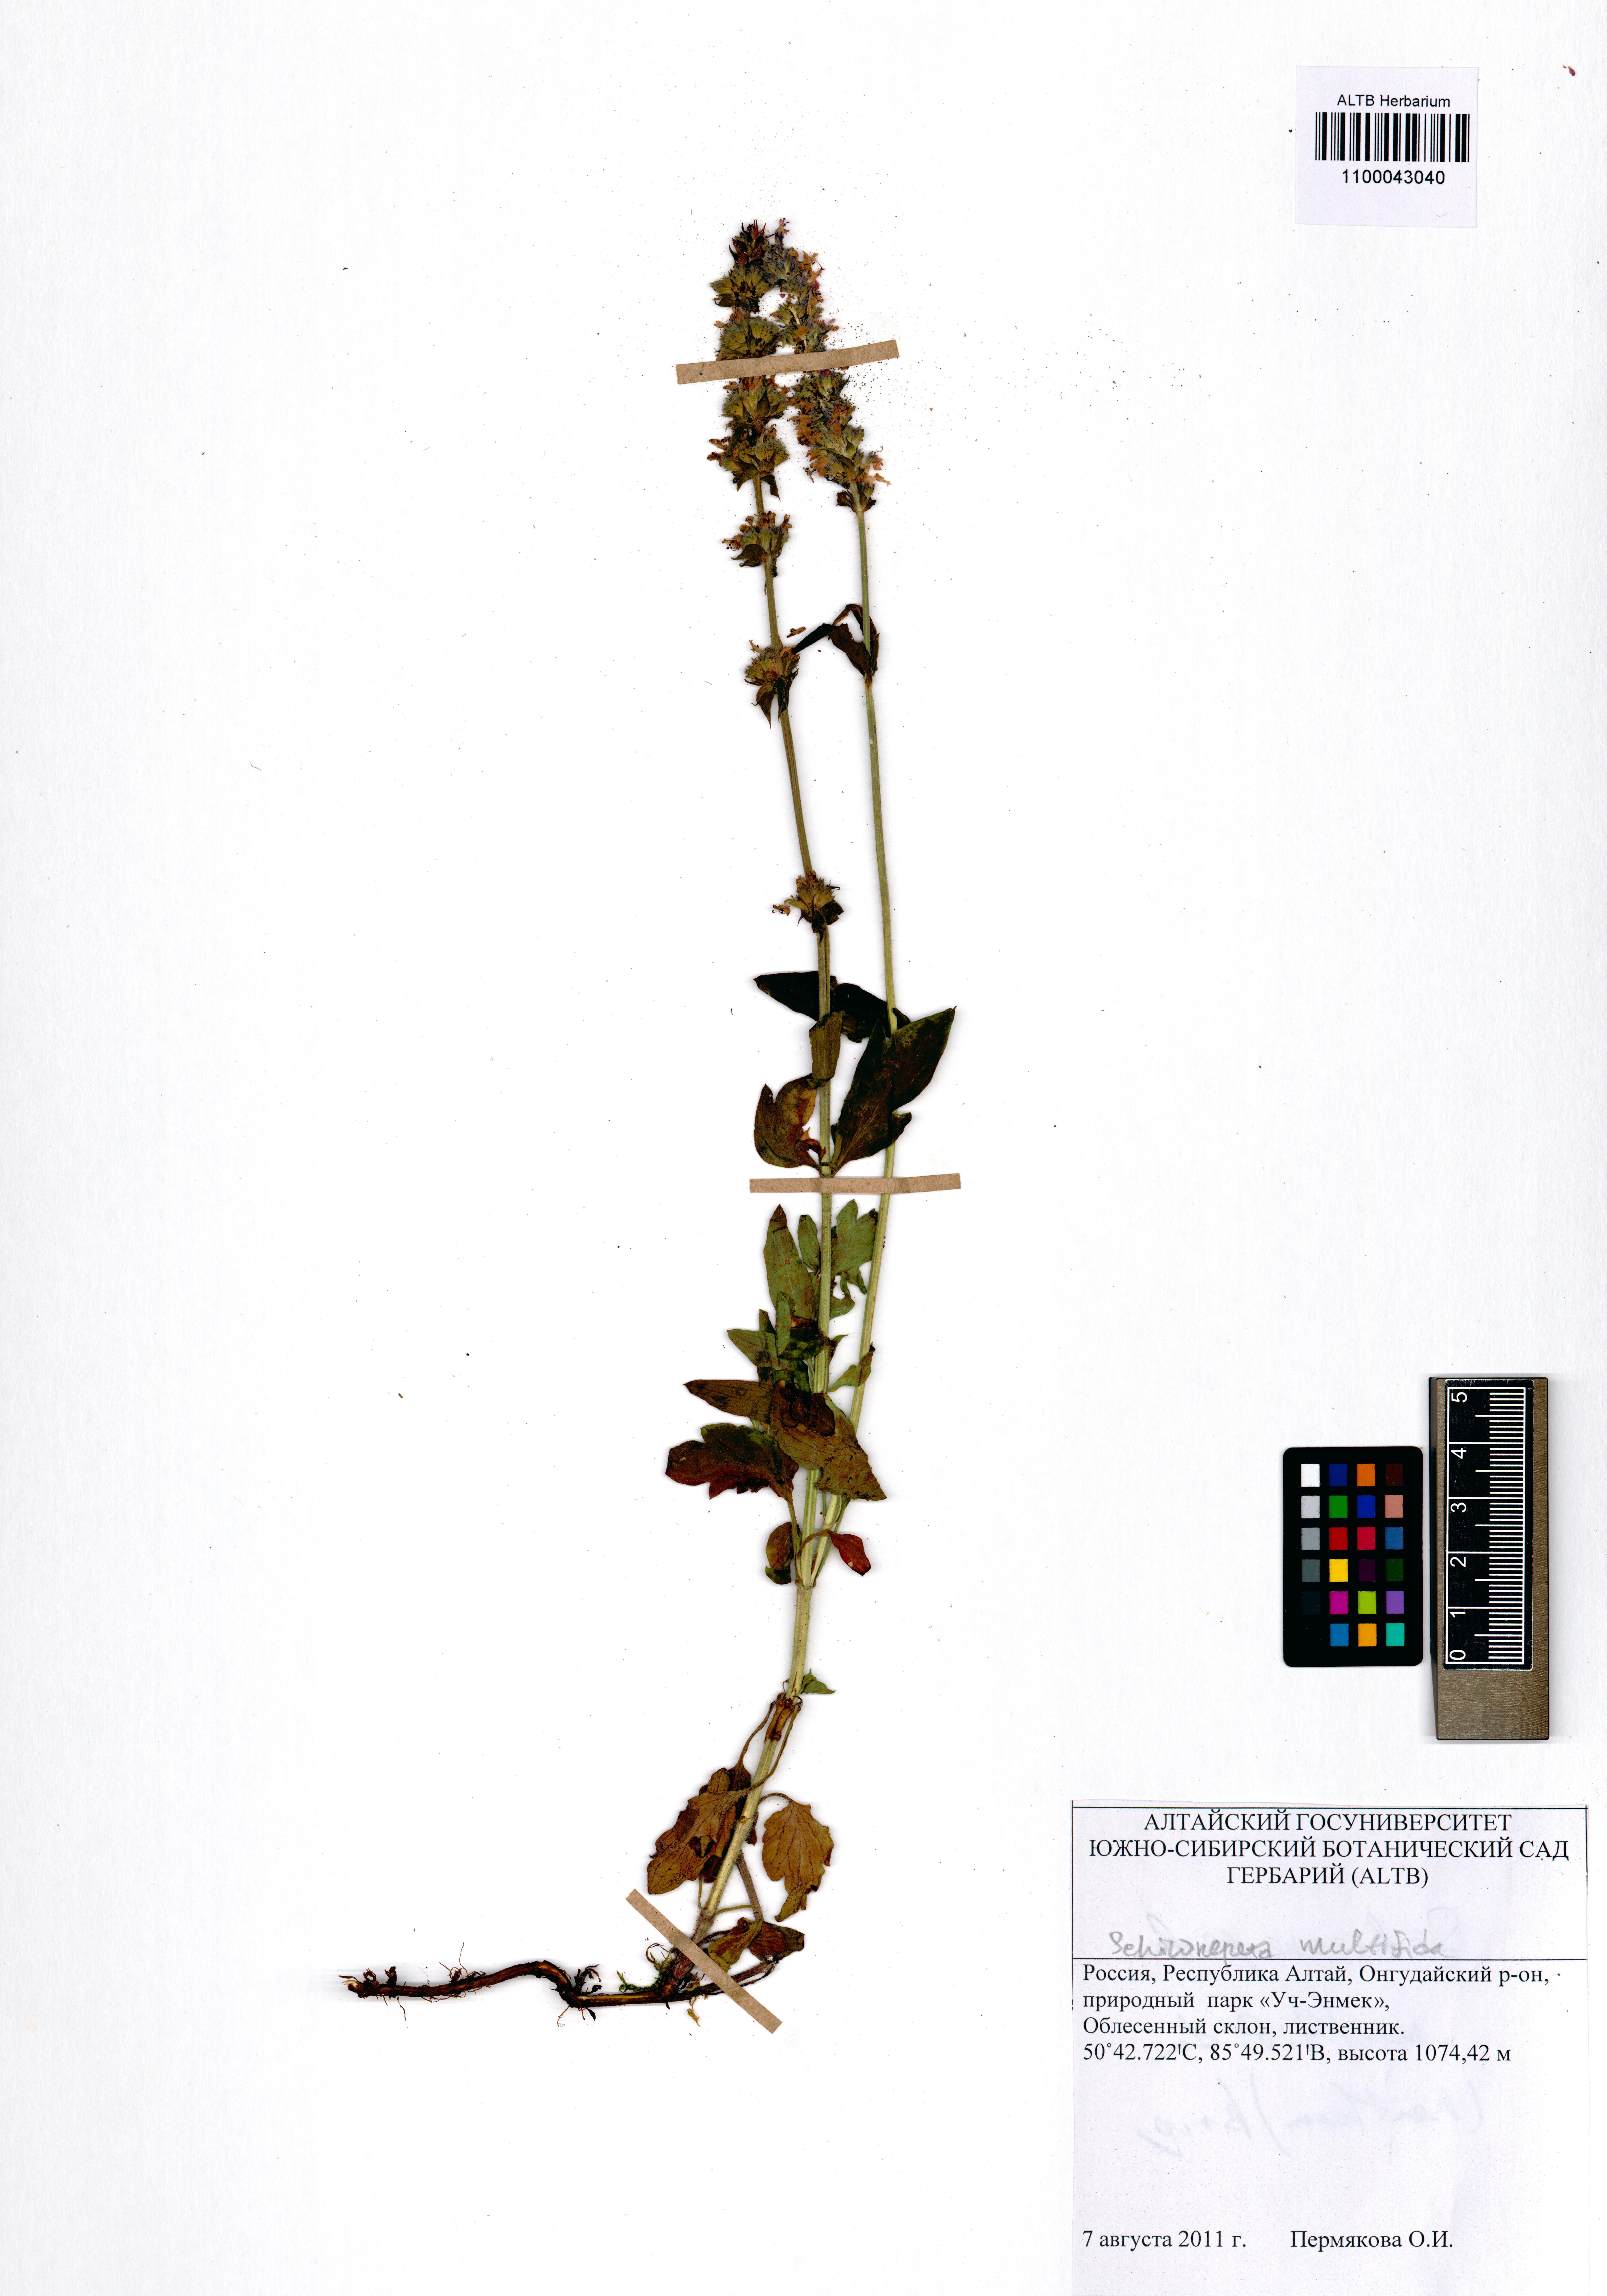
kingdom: Plantae
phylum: Tracheophyta
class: Magnoliopsida
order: Lamiales
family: Lamiaceae
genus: Nepeta
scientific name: Nepeta multifida
